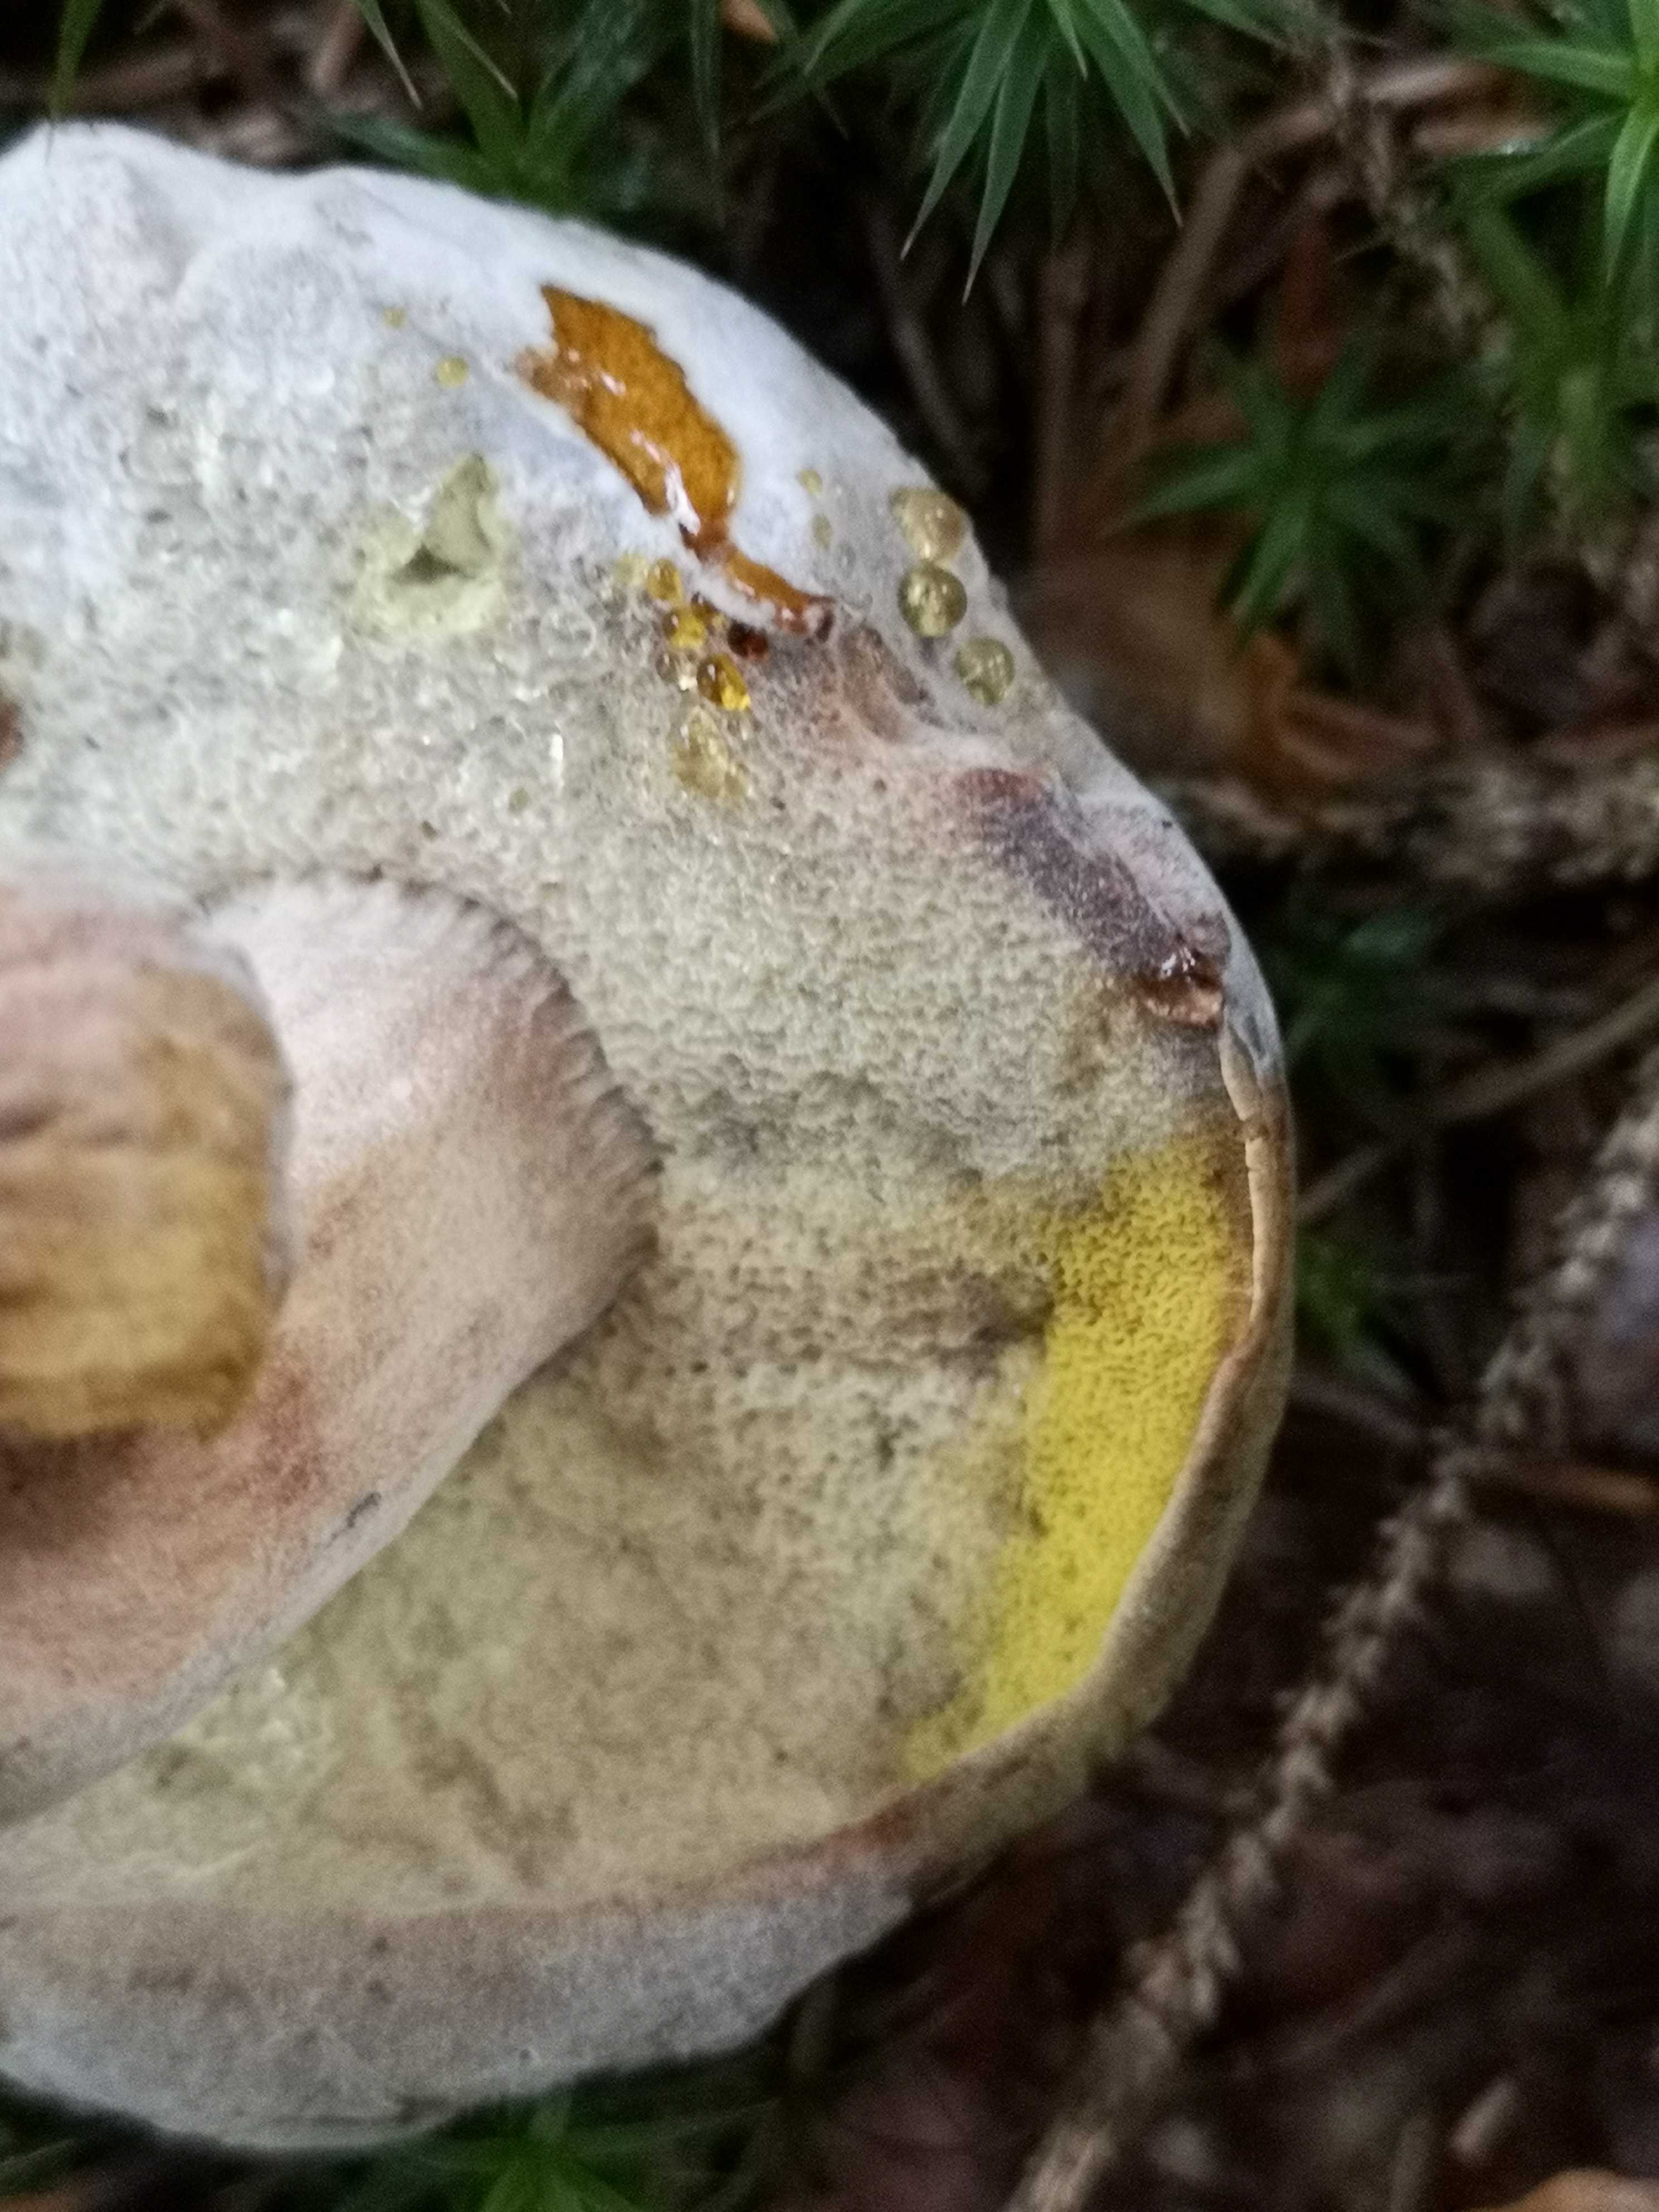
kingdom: Fungi
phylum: Ascomycota
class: Sordariomycetes
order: Hypocreales
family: Hypocreaceae
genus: Hypomyces
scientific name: Hypomyces microspermus
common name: dværgrørhat-snylteskorpe
